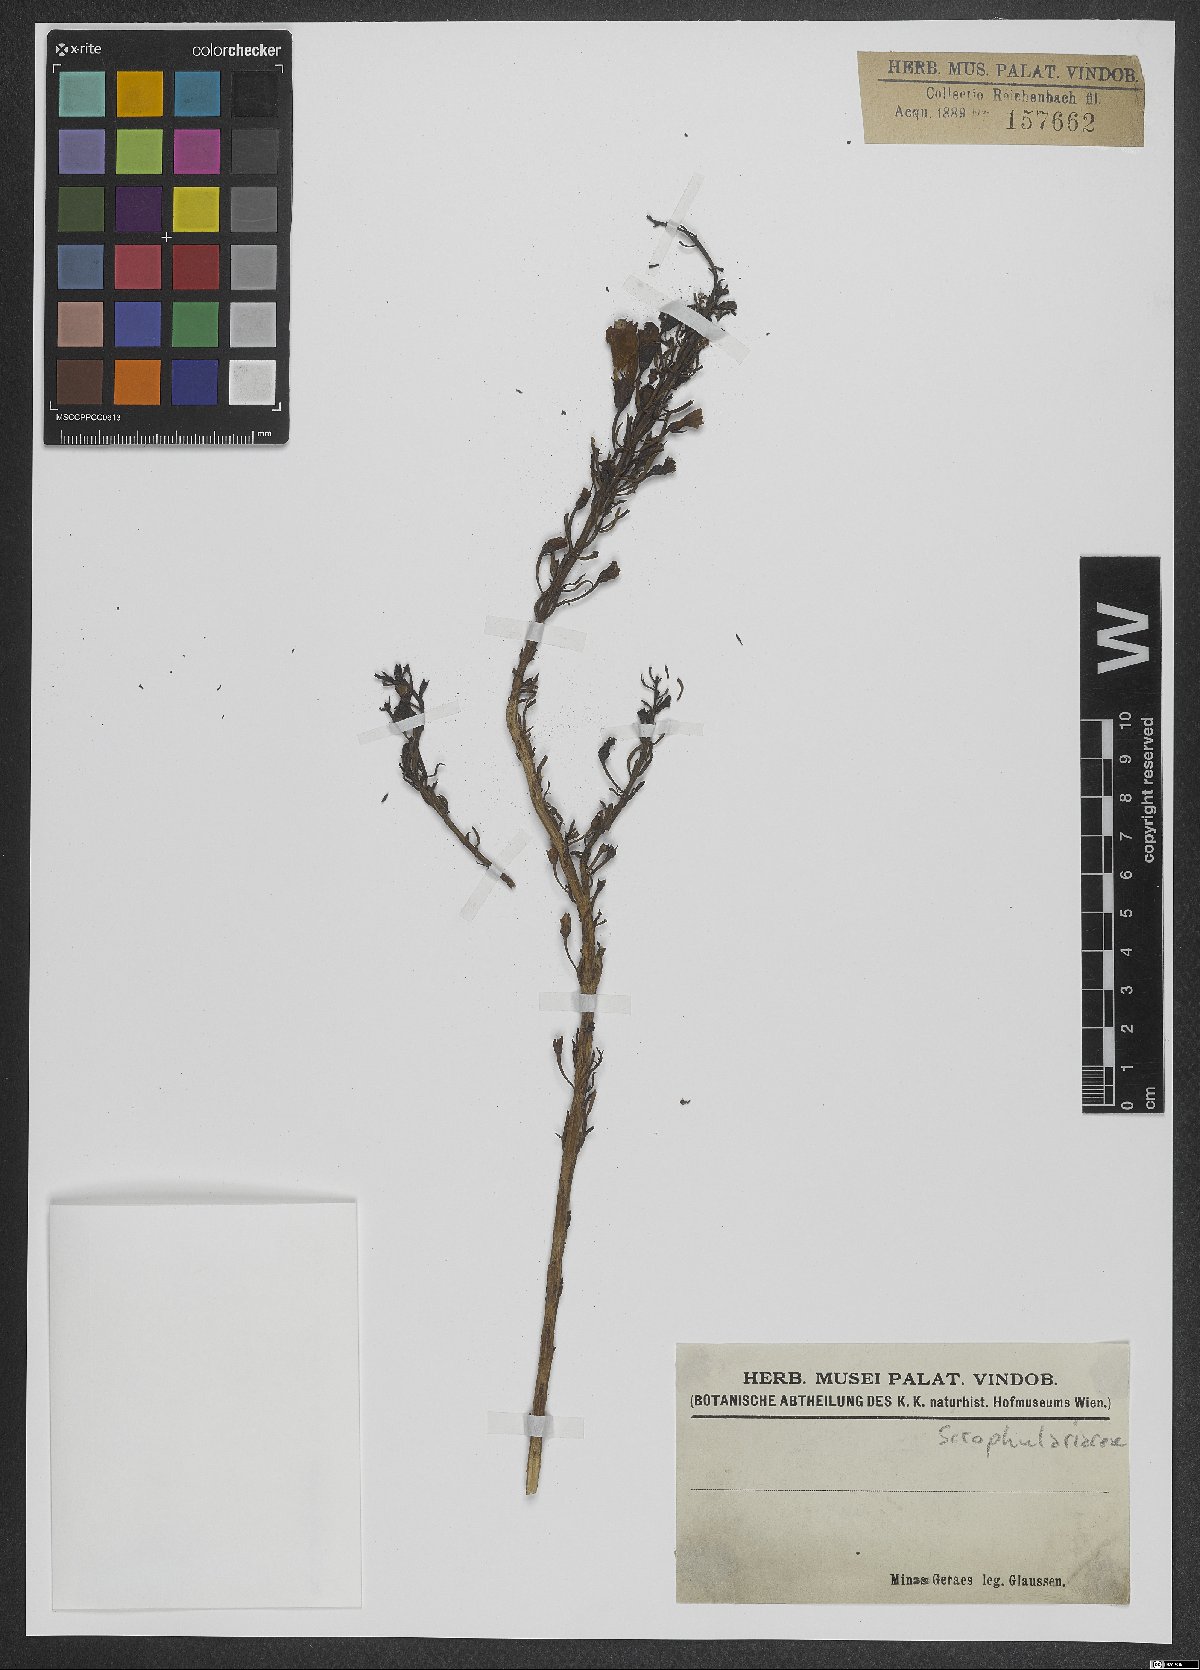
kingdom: Plantae
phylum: Tracheophyta
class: Magnoliopsida
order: Lamiales
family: Scrophulariaceae
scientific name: Scrophulariaceae
